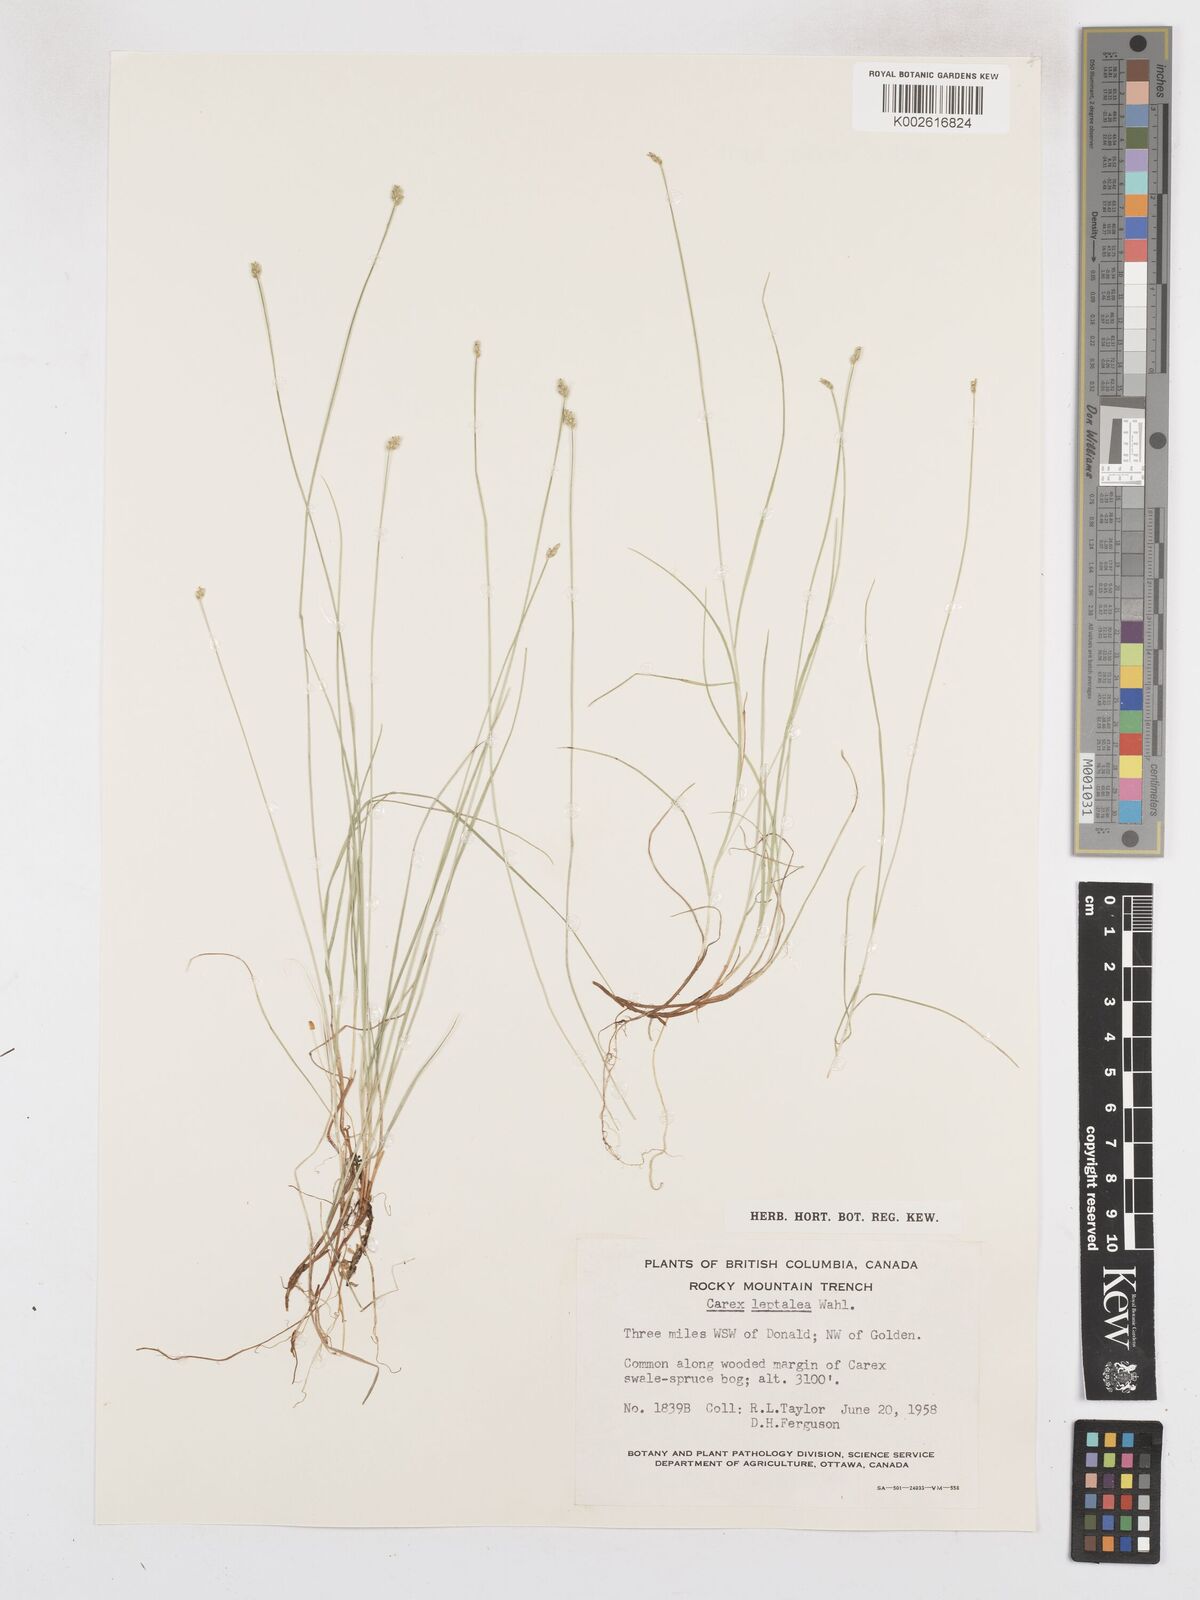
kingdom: Plantae
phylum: Tracheophyta
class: Liliopsida
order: Poales
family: Cyperaceae
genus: Carex
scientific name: Carex leptalea
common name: Bristly-stalked sedge
